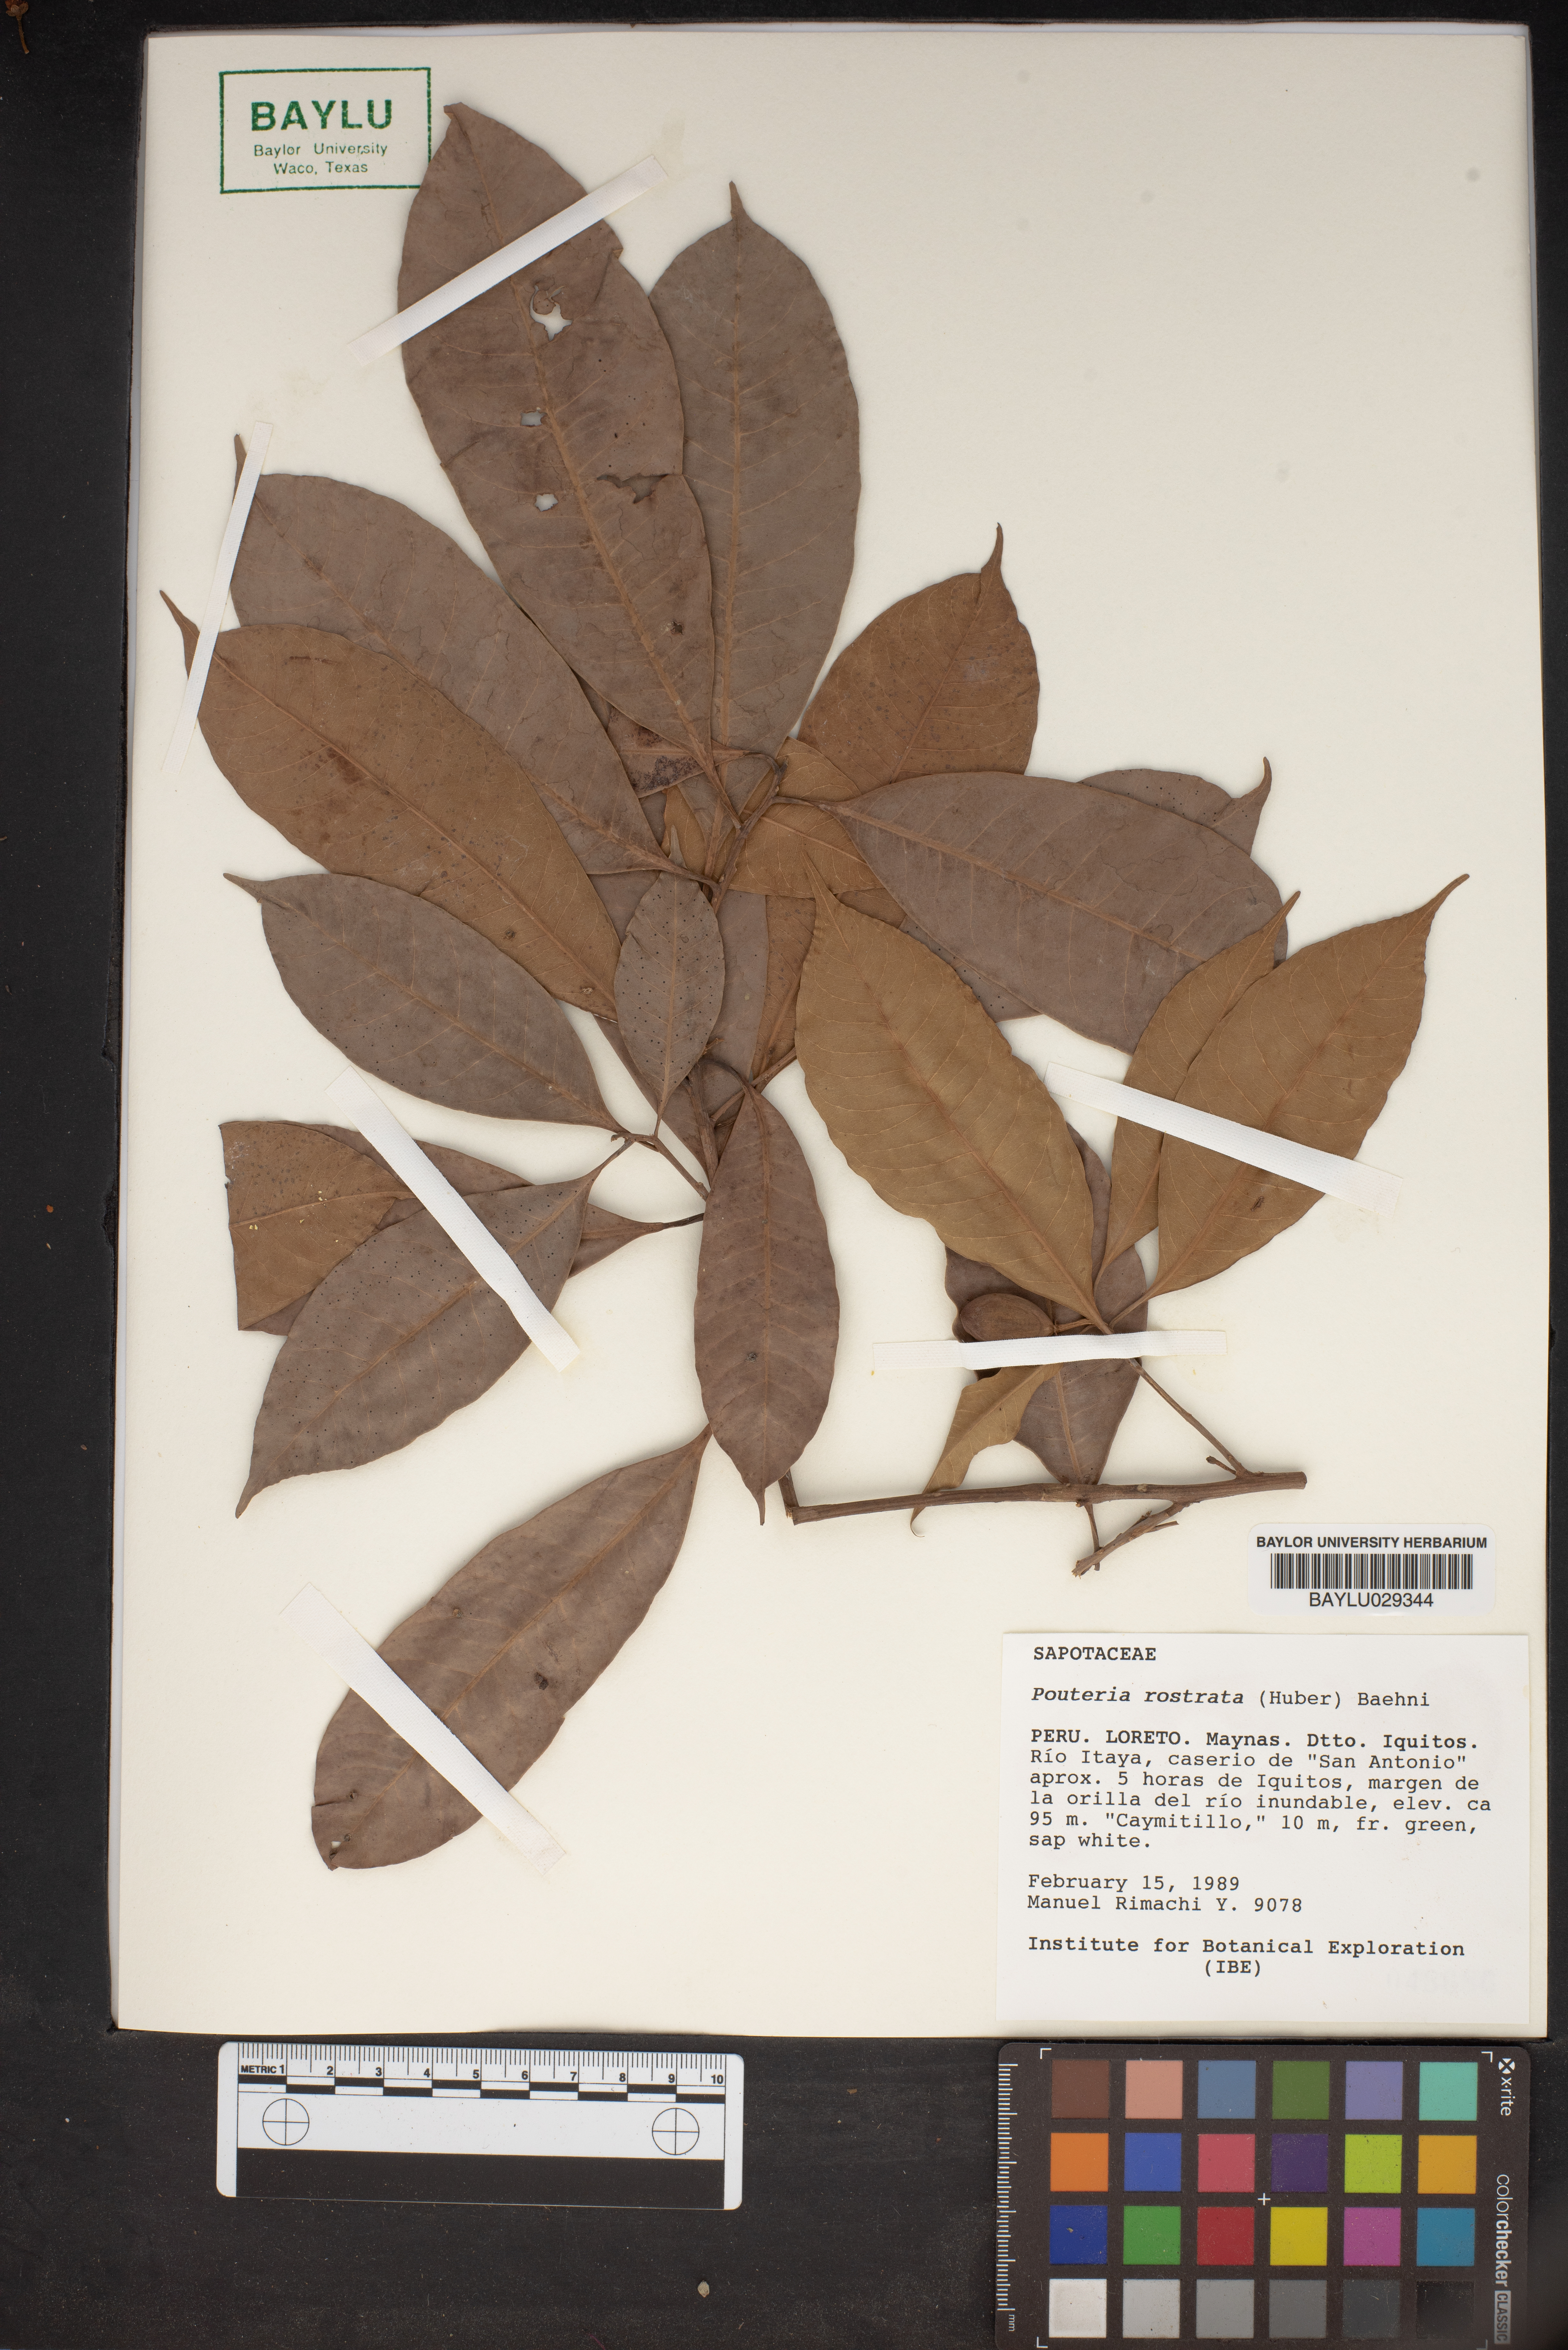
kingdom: Plantae
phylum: Tracheophyta
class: Magnoliopsida
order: Ericales
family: Sapotaceae
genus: Pouteria
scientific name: Pouteria rostrata
